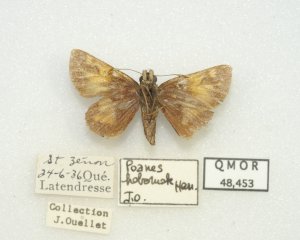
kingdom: Animalia
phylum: Arthropoda
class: Insecta
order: Lepidoptera
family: Hesperiidae
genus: Lon
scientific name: Lon hobomok
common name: Hobomok Skipper
